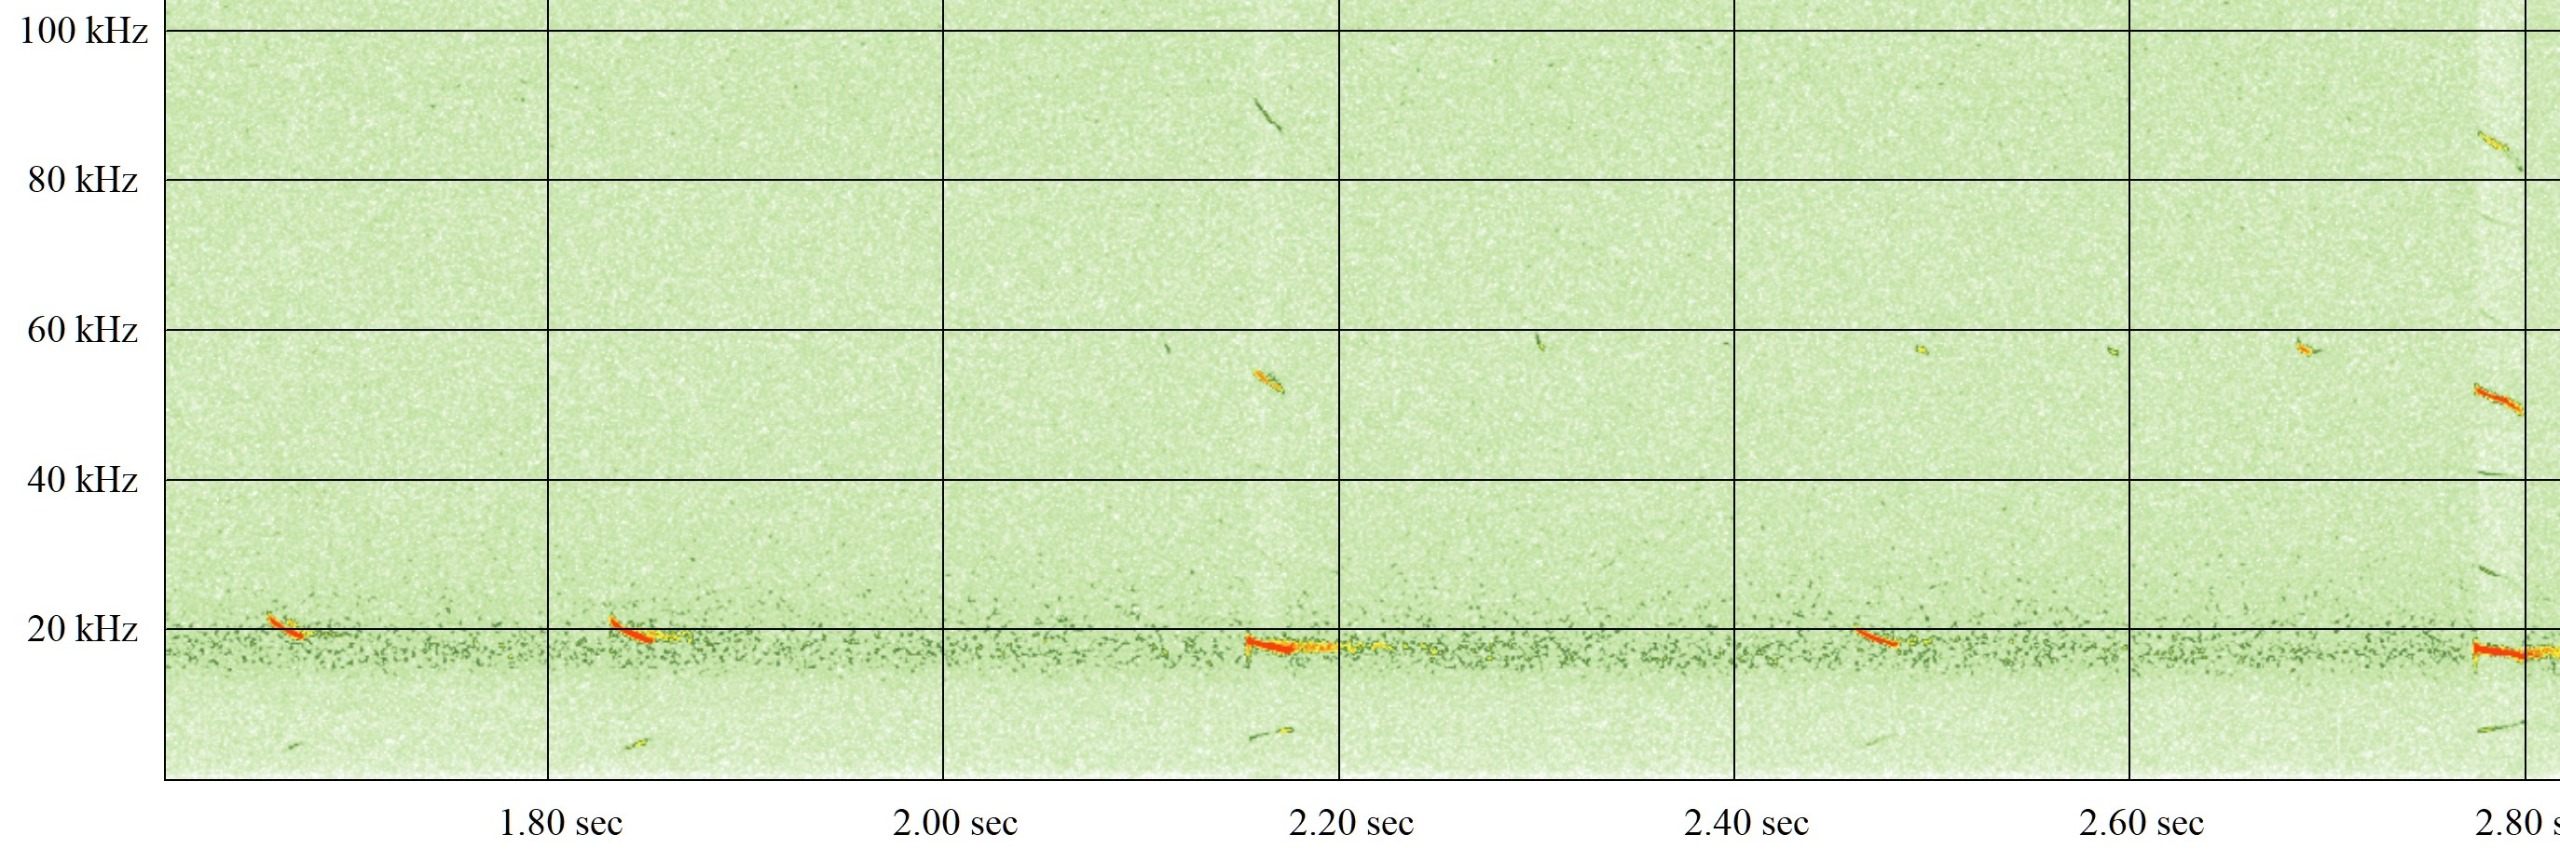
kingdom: Animalia
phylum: Chordata
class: Mammalia
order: Chiroptera
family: Vespertilionidae
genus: Nyctalus
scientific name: Nyctalus noctula
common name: Brunflagermus
